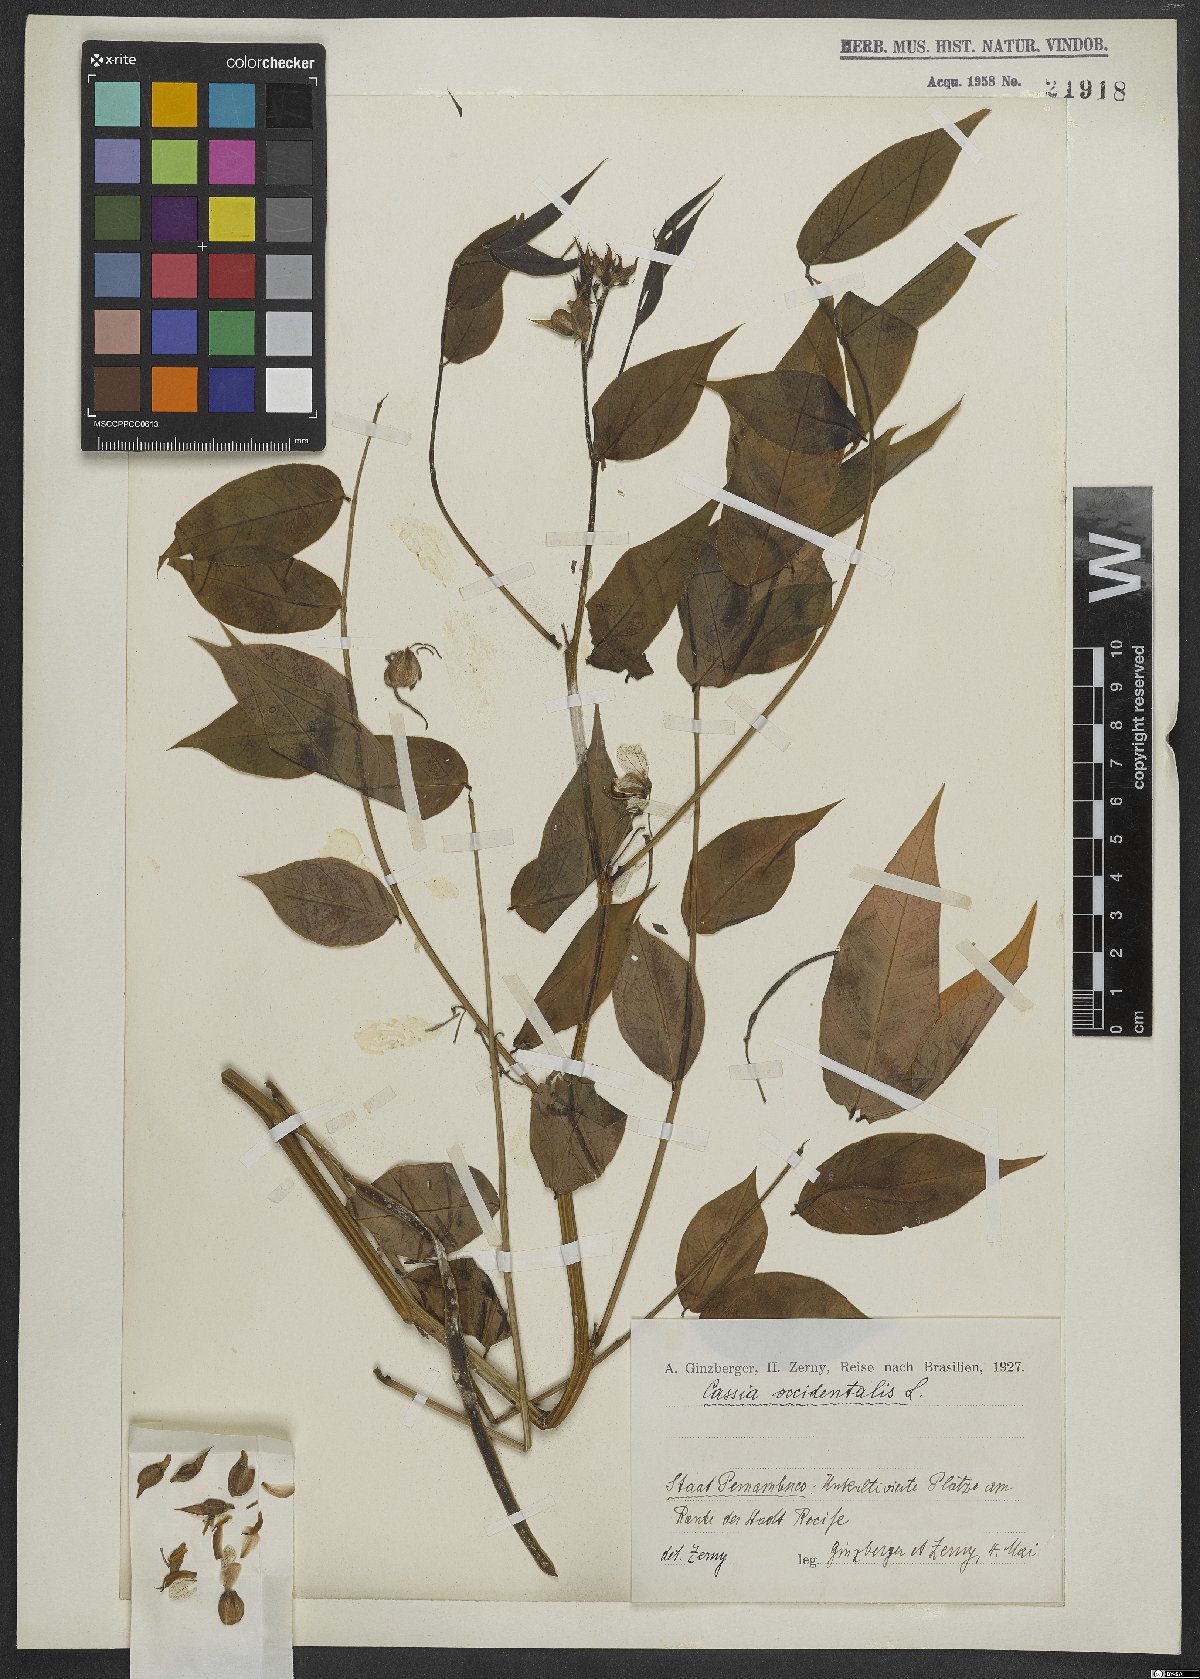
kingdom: Plantae
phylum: Tracheophyta
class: Magnoliopsida
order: Fabales
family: Fabaceae
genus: Senna
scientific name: Senna occidentalis
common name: Septicweed
